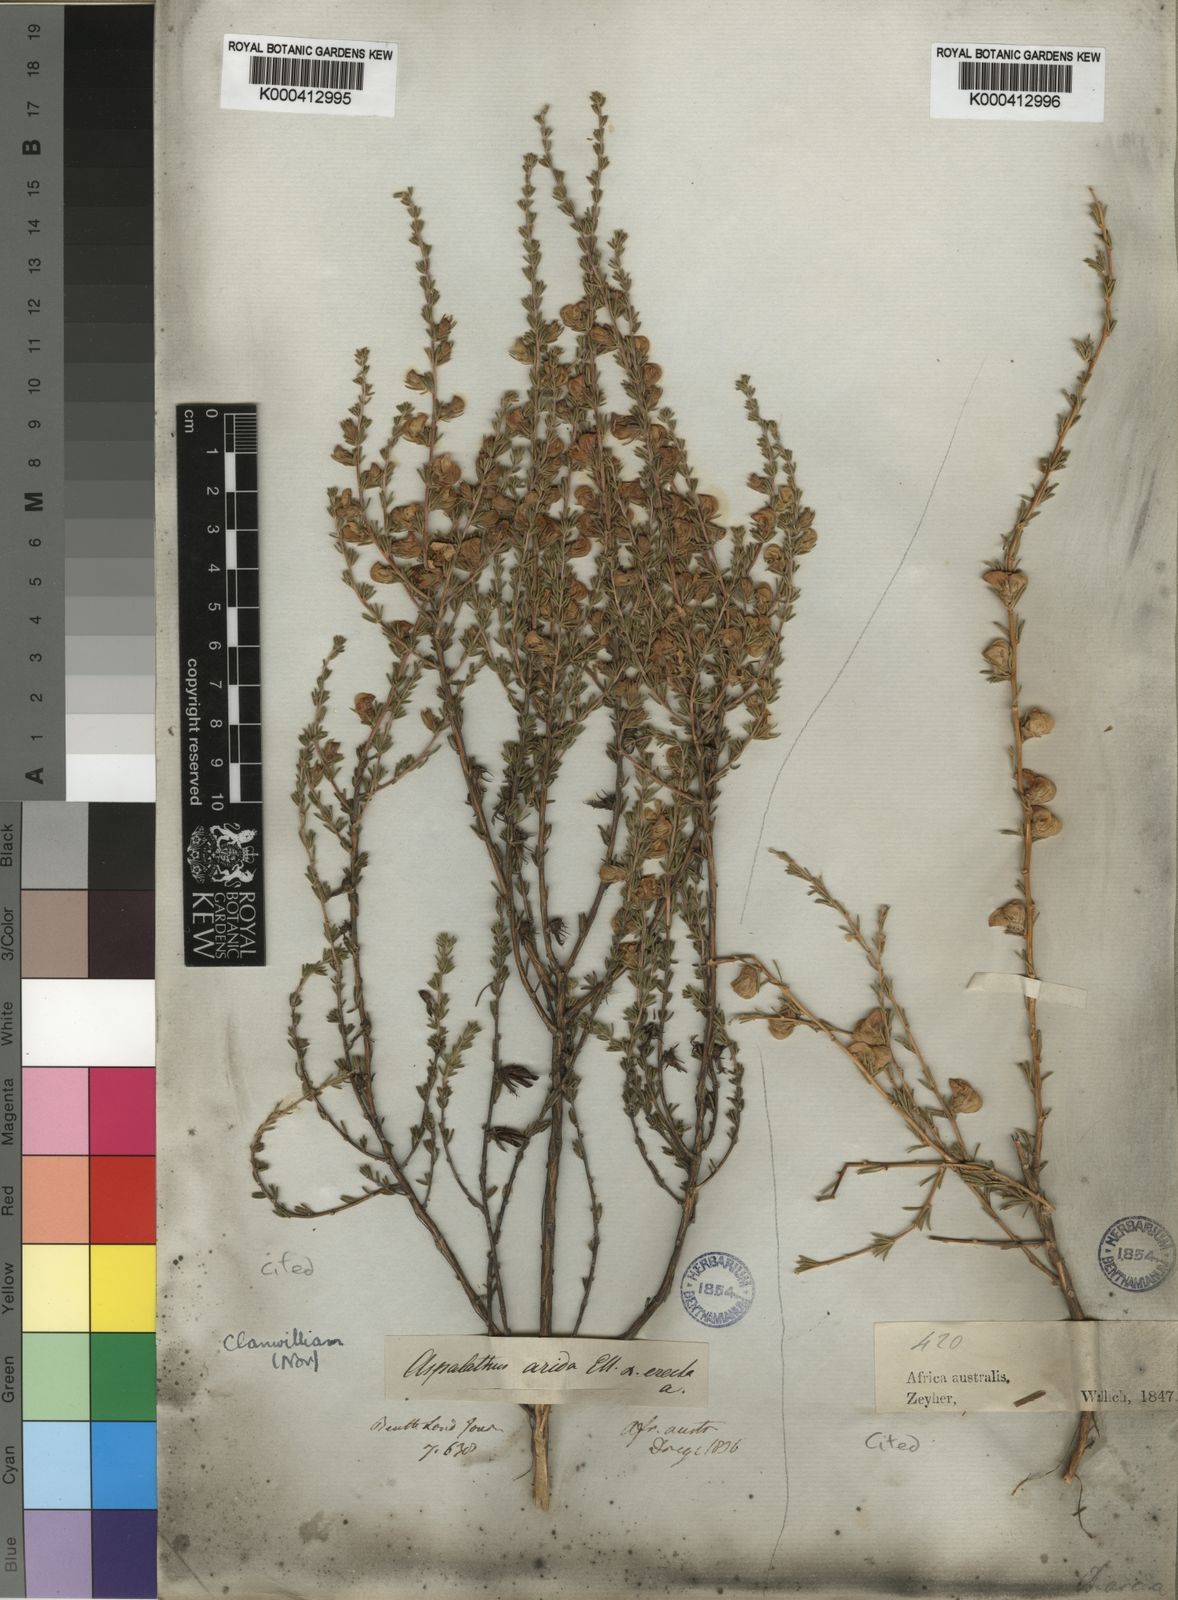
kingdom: Plantae
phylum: Tracheophyta
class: Magnoliopsida
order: Fabales
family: Fabaceae
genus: Aspalathus
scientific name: Aspalathus arida
